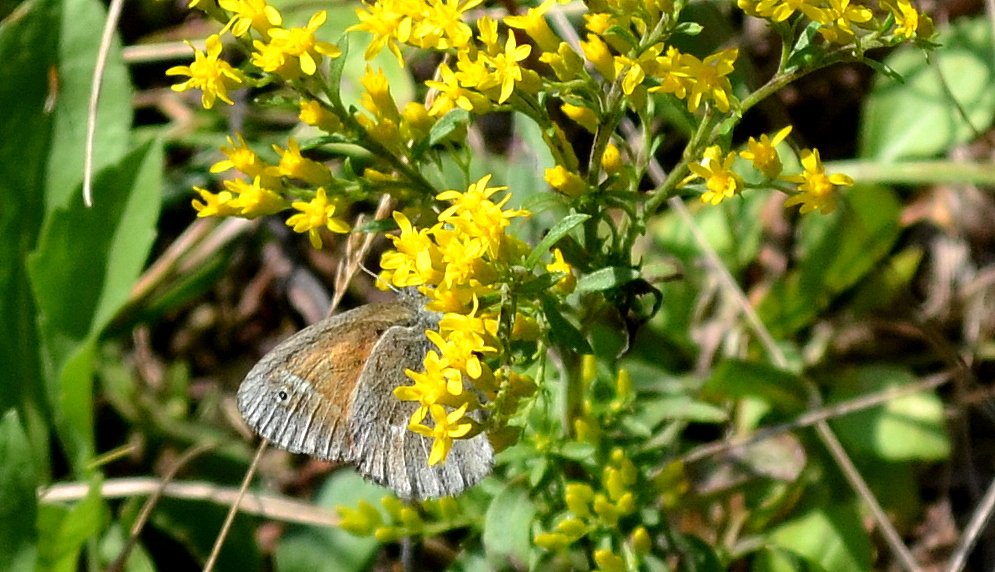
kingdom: Animalia
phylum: Arthropoda
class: Insecta
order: Lepidoptera
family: Nymphalidae
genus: Coenonympha
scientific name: Coenonympha tullia
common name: Large Heath
